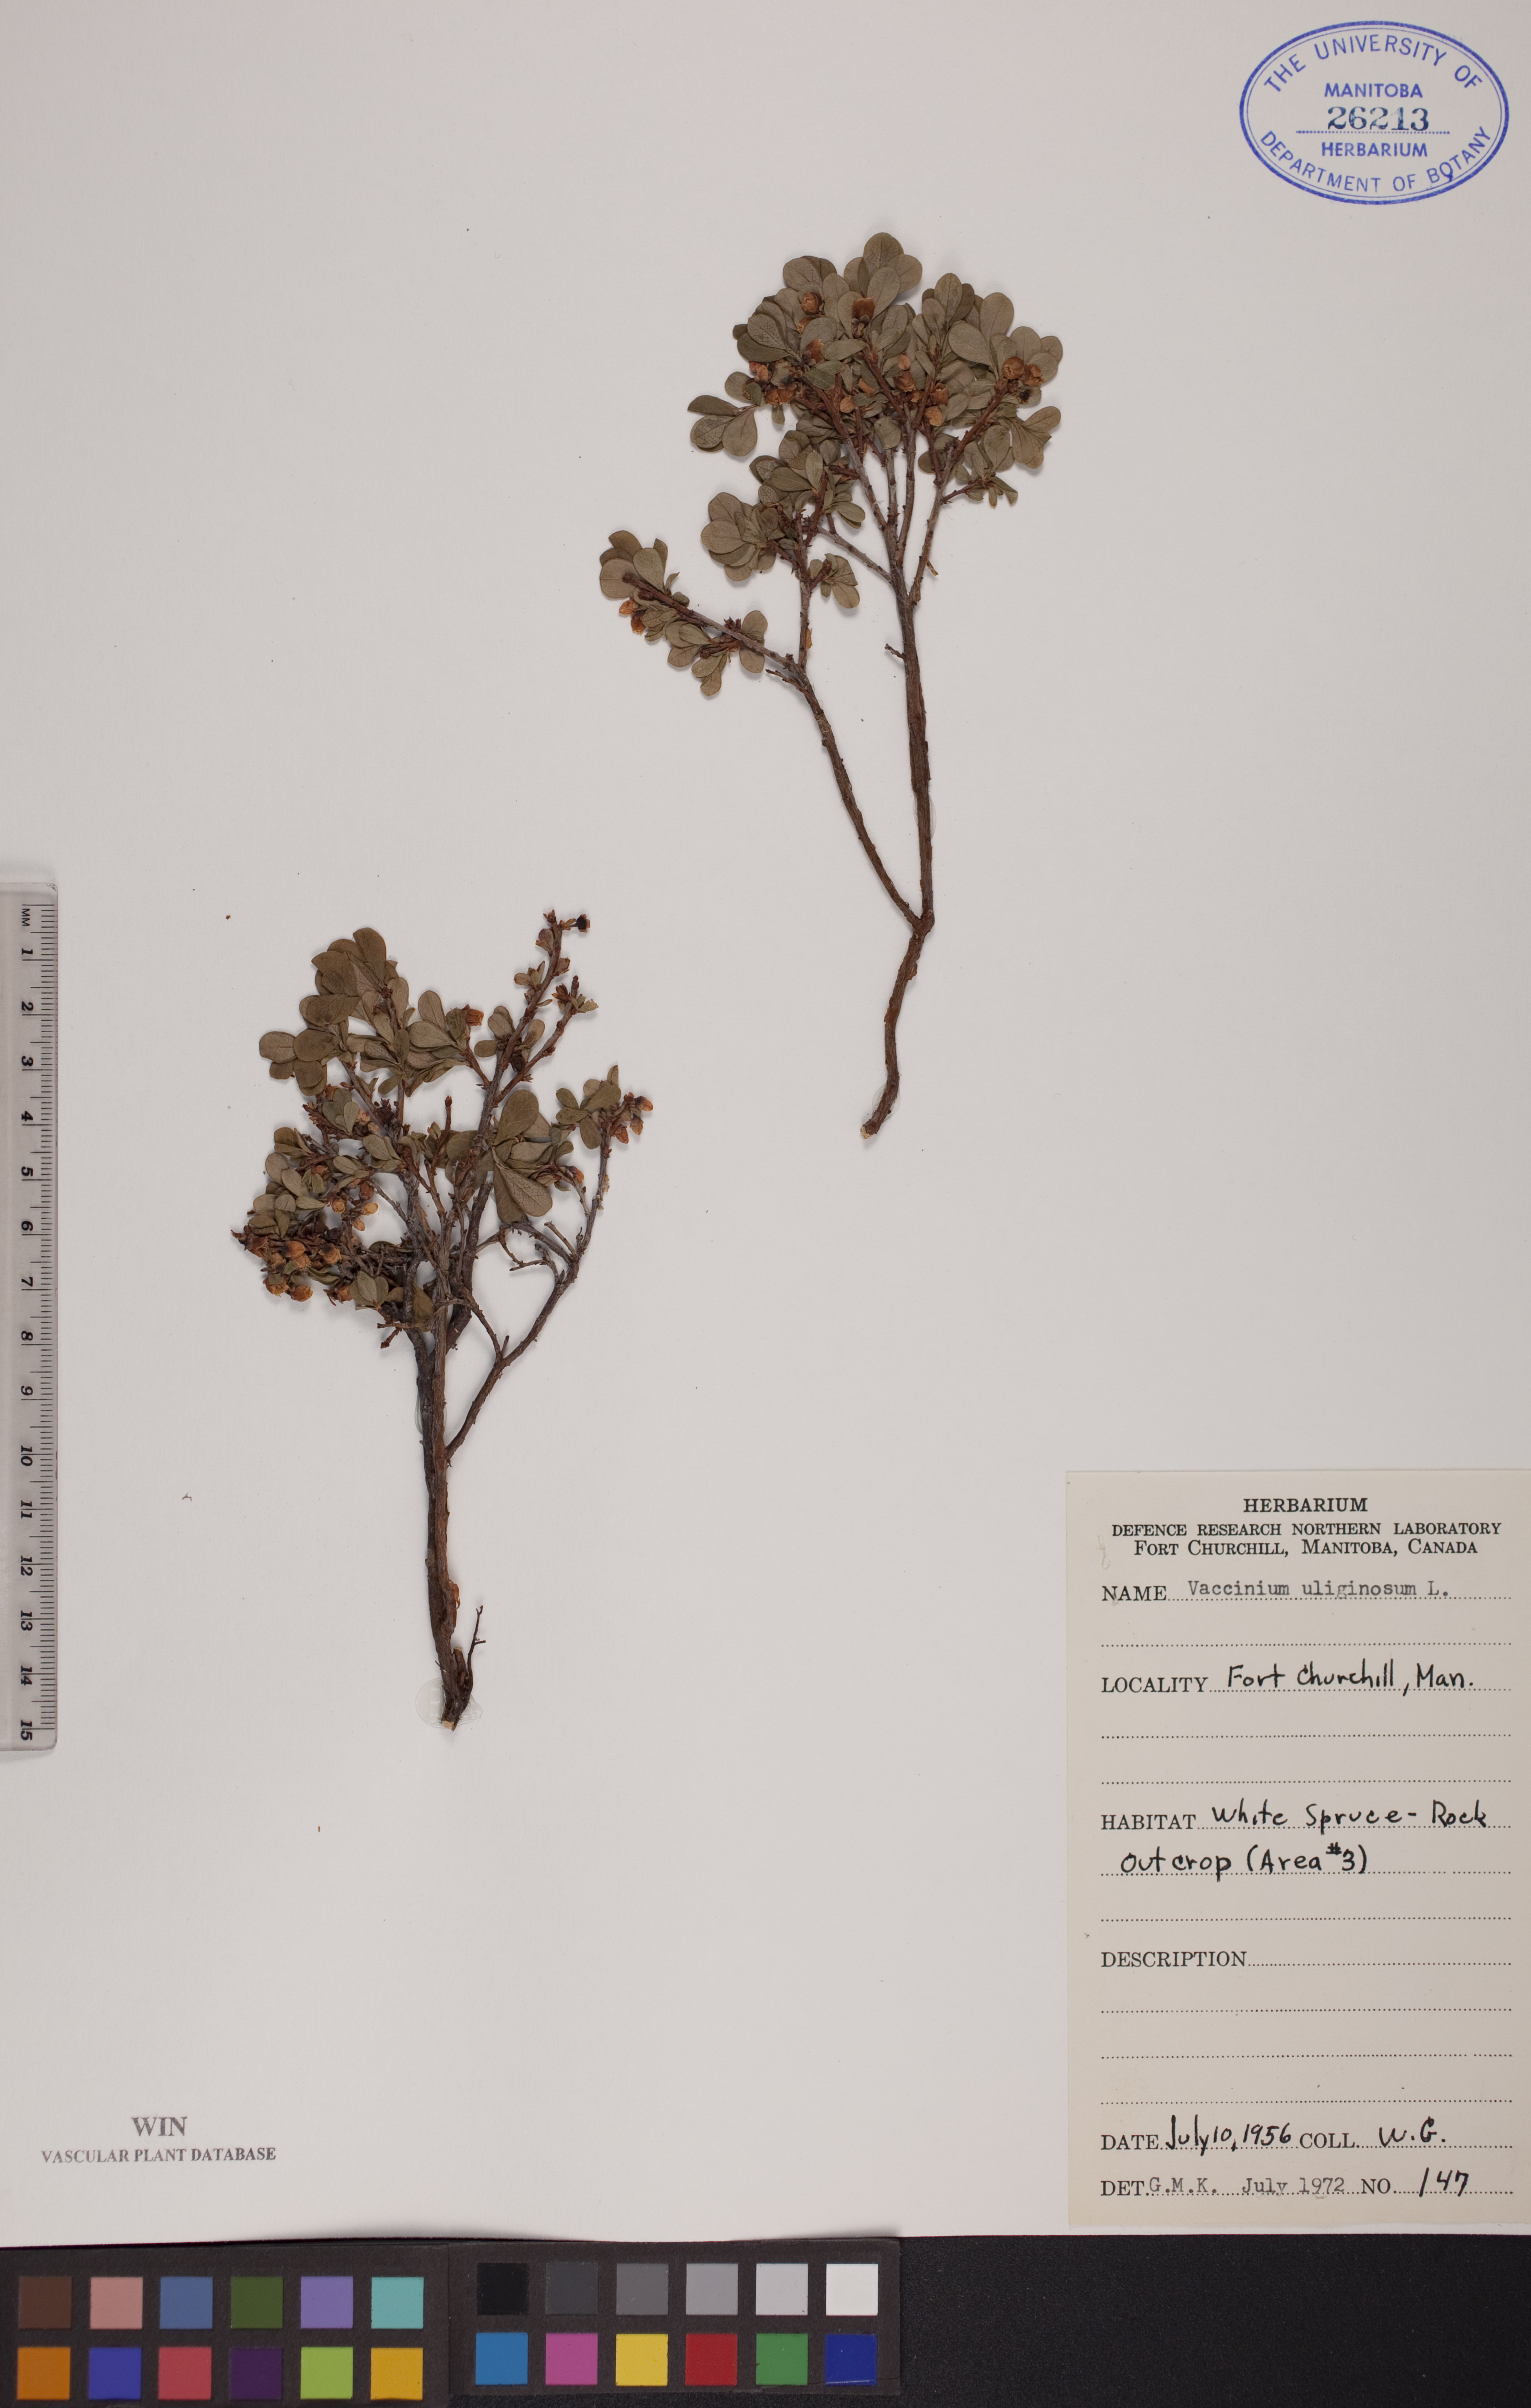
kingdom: Plantae
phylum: Tracheophyta
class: Magnoliopsida
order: Ericales
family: Ericaceae
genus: Vaccinium
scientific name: Vaccinium uliginosum
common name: Bog bilberry
